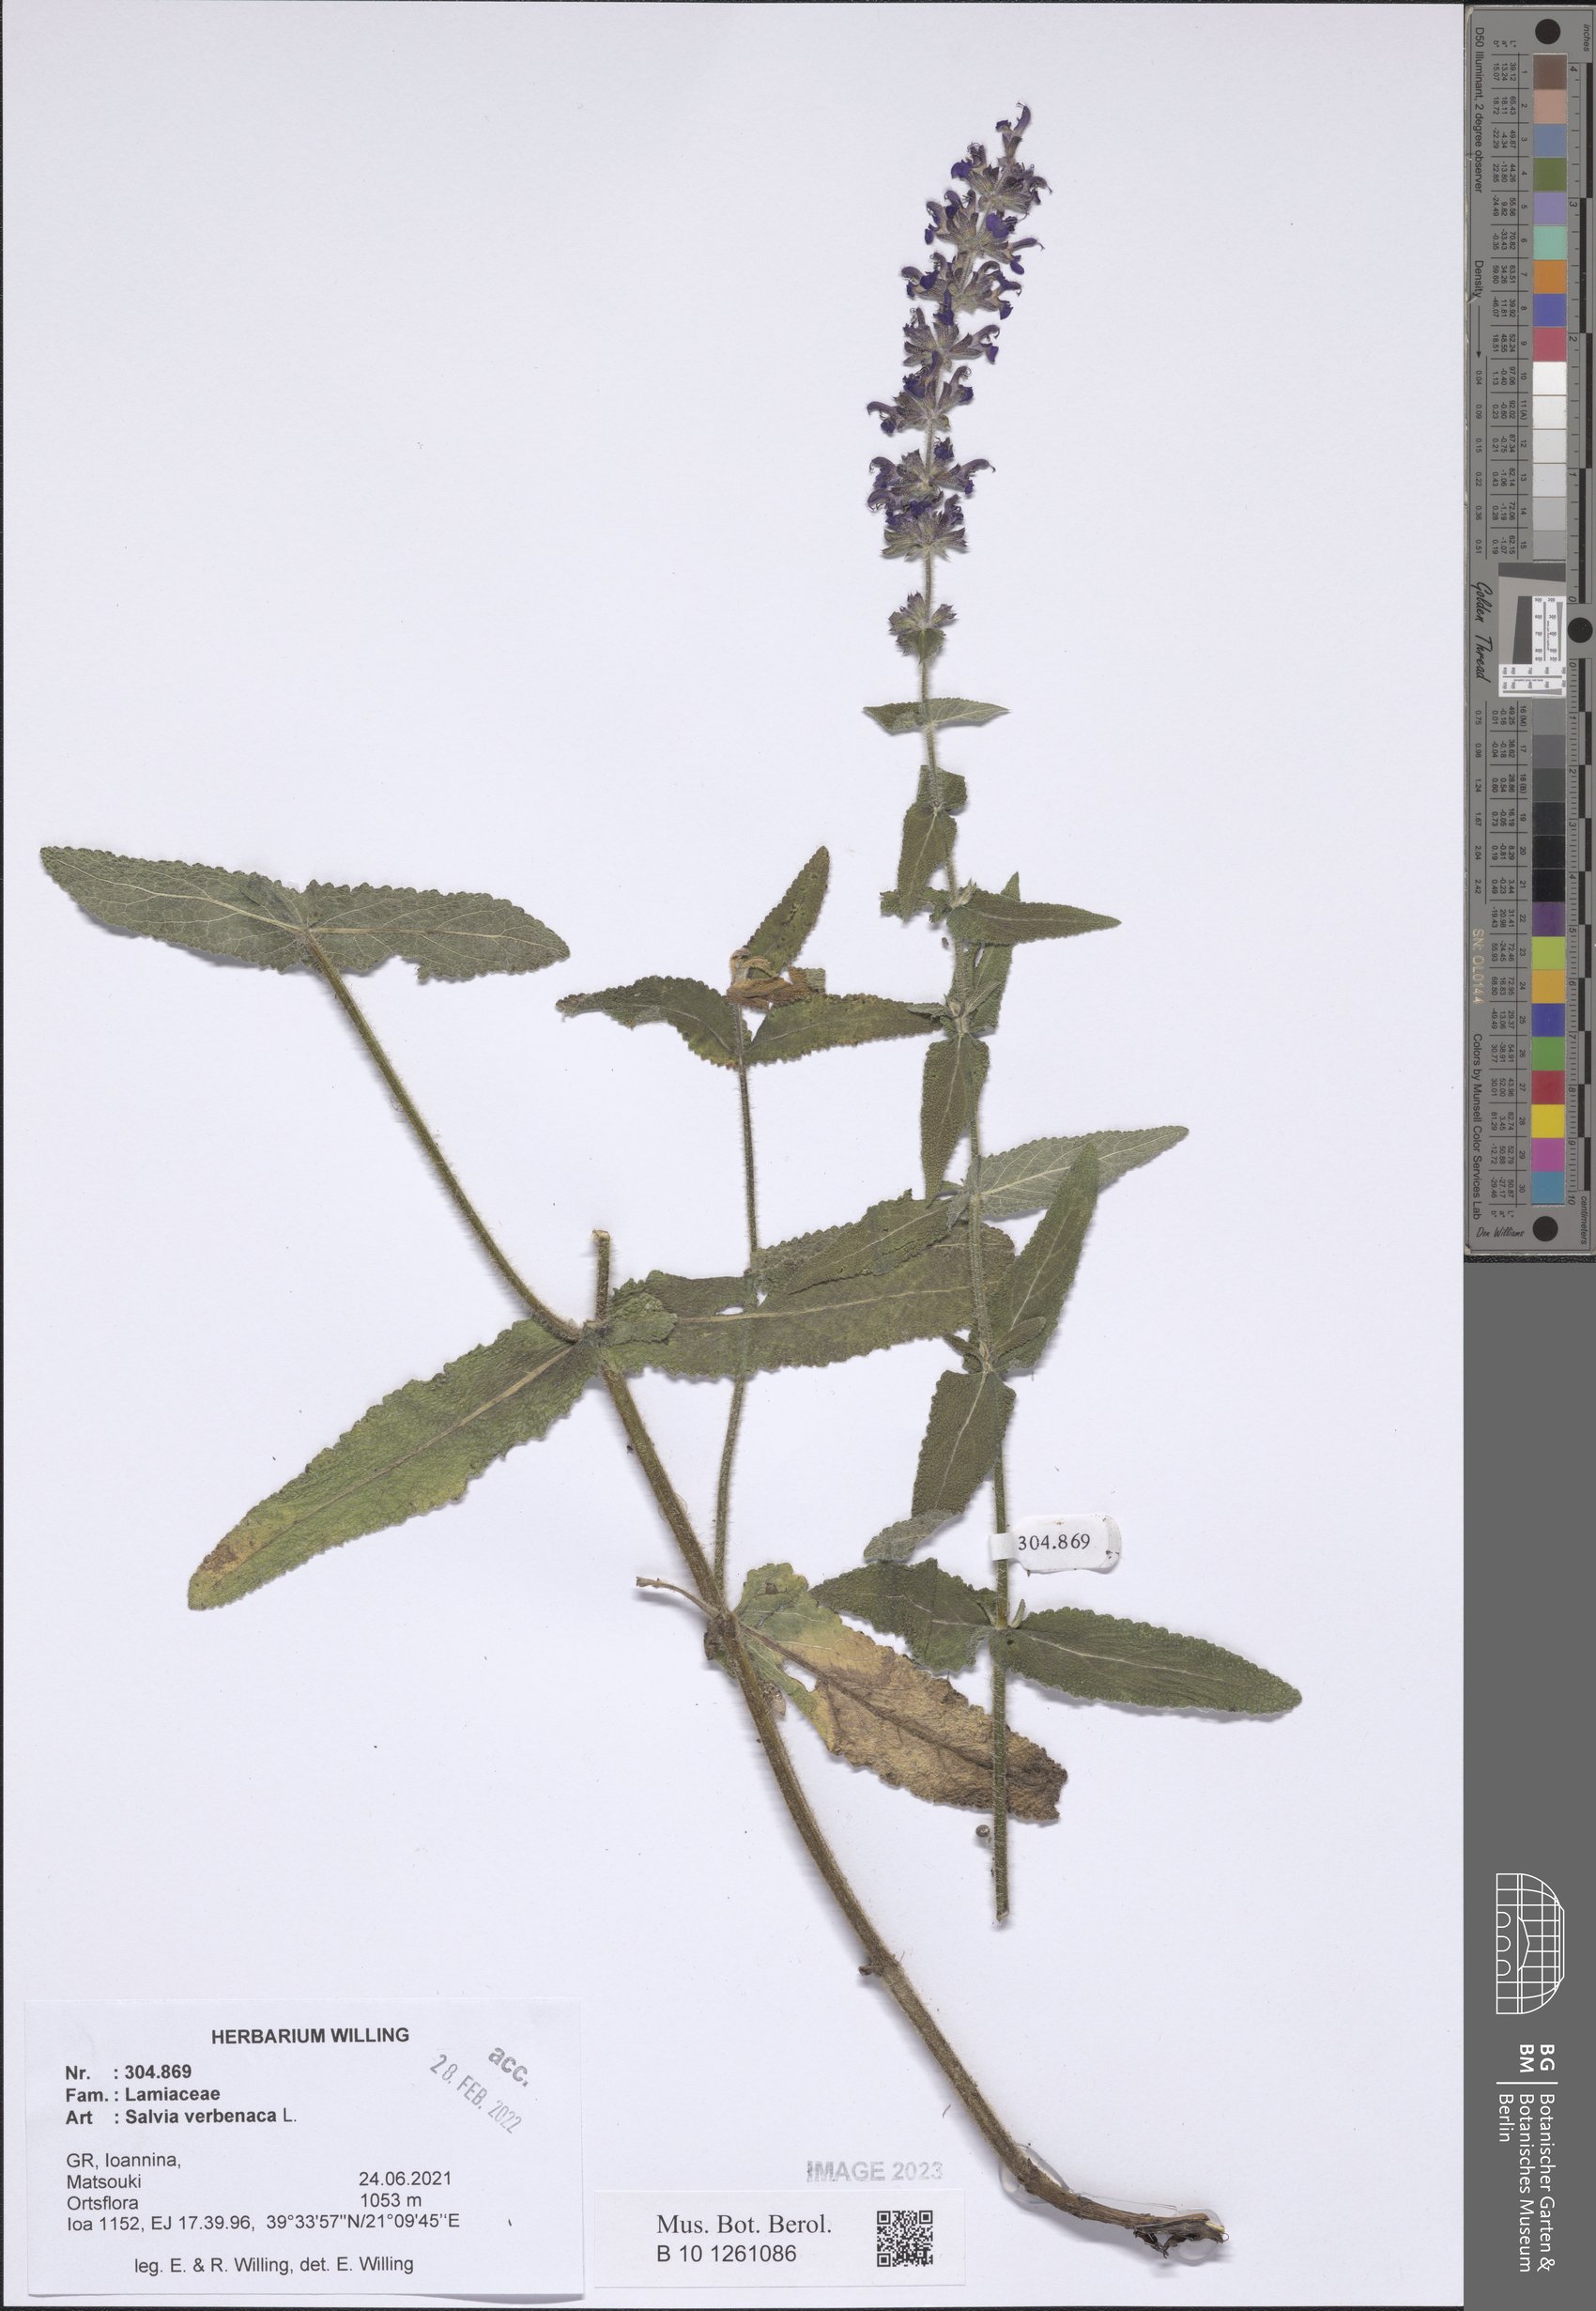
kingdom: Plantae
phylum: Tracheophyta
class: Magnoliopsida
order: Lamiales
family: Lamiaceae
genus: Salvia
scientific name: Salvia verbenaca
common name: Wild clary
